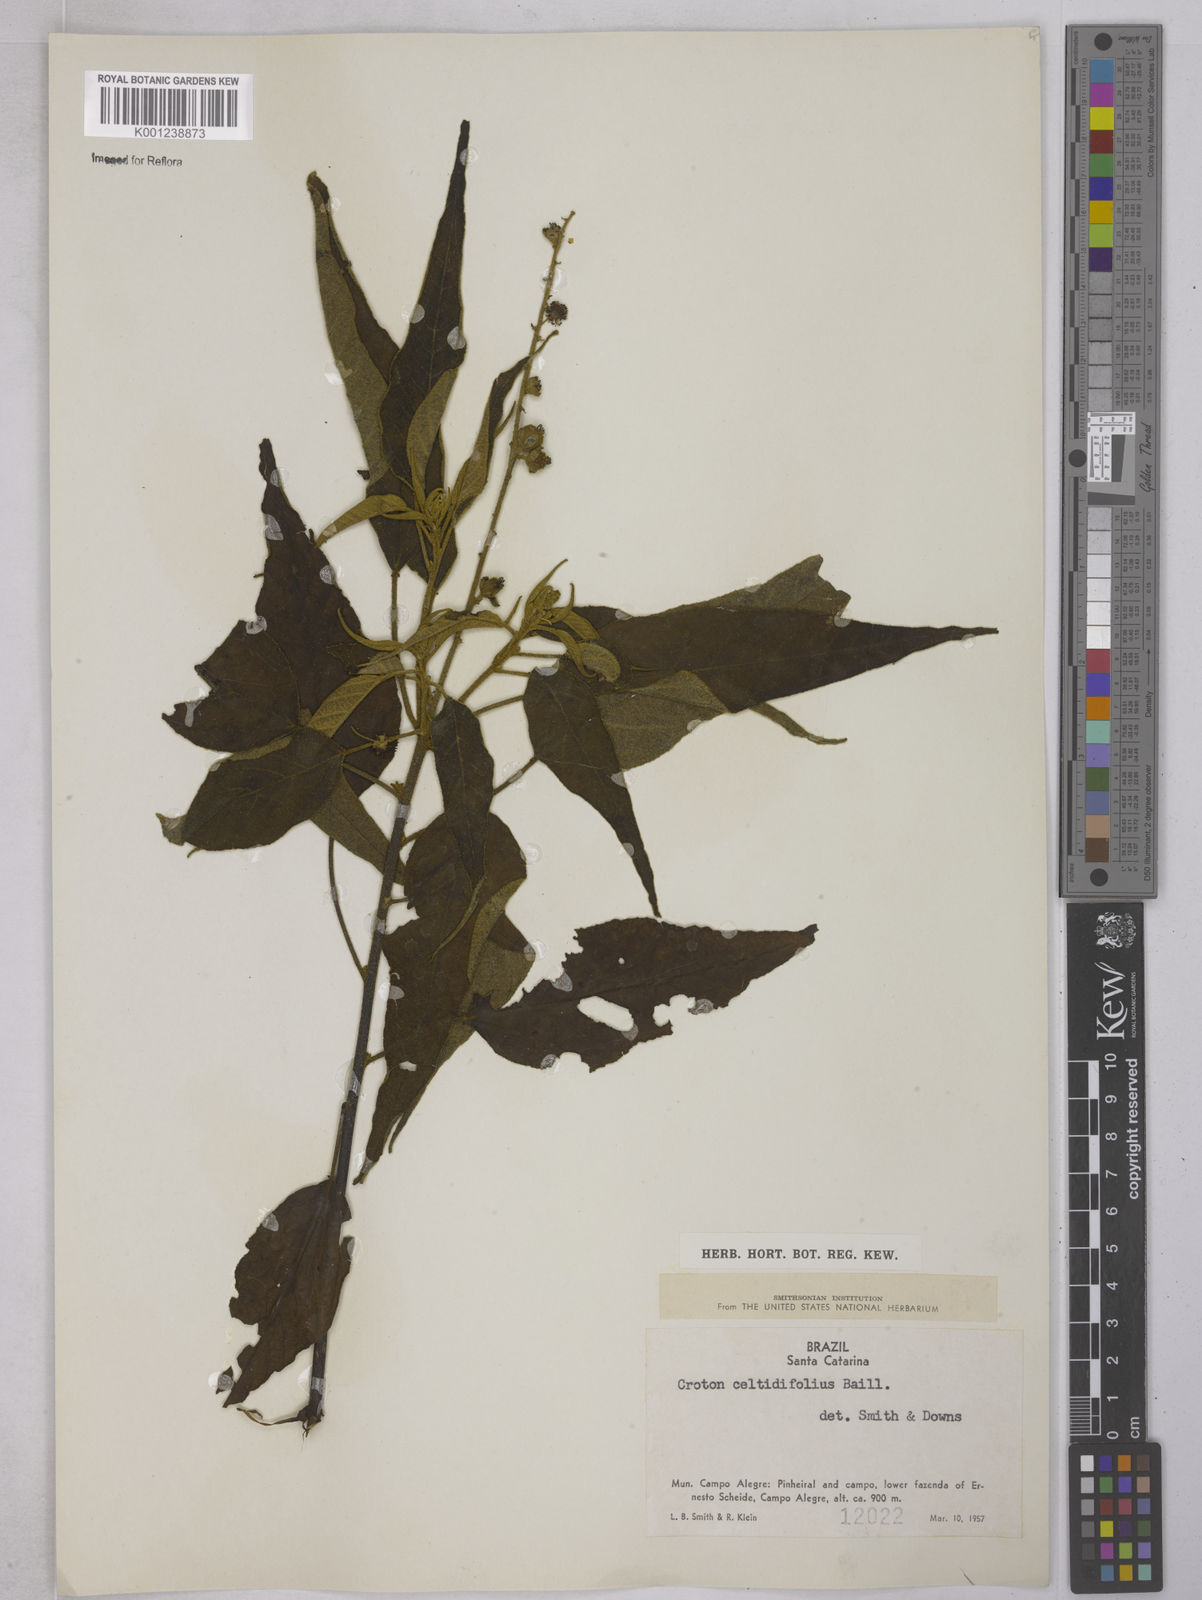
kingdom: Plantae
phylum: Tracheophyta
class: Magnoliopsida
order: Malpighiales
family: Euphorbiaceae
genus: Croton
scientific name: Croton celtidifolius
